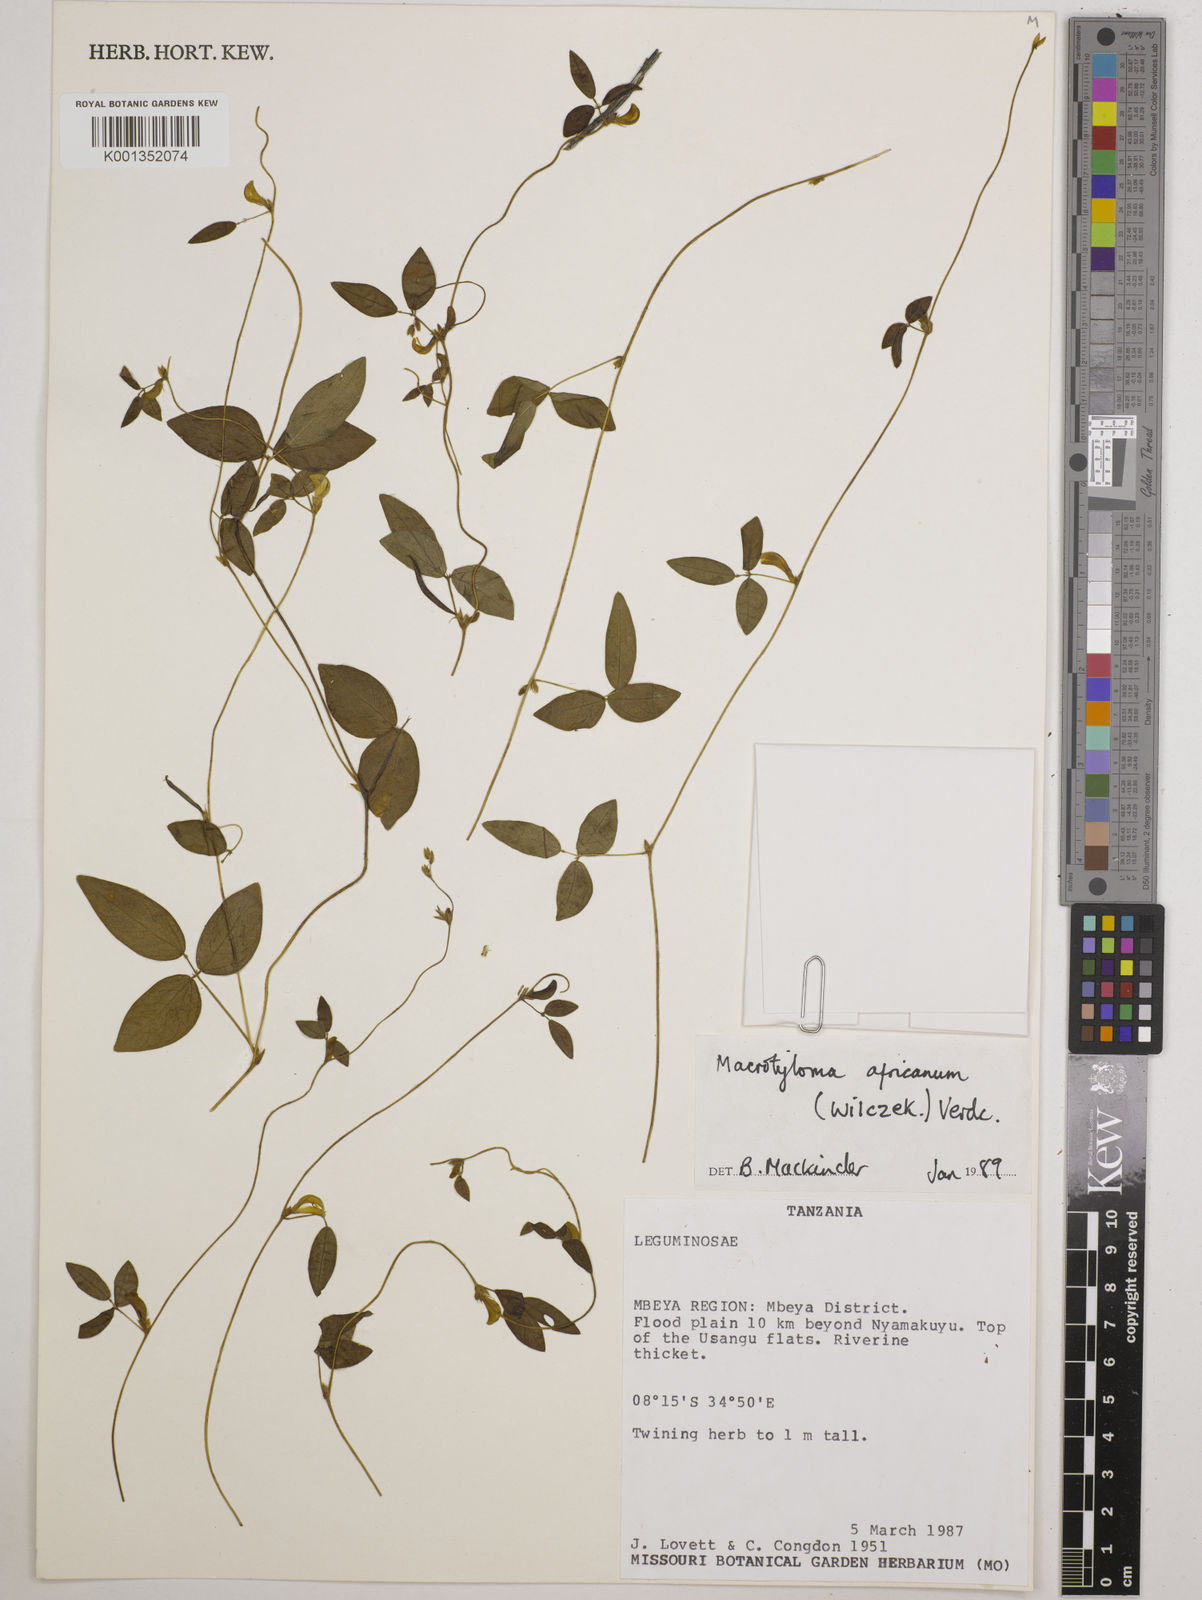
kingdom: Plantae
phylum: Tracheophyta
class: Magnoliopsida
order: Fabales
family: Fabaceae
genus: Macrotyloma
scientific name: Macrotyloma africanum
